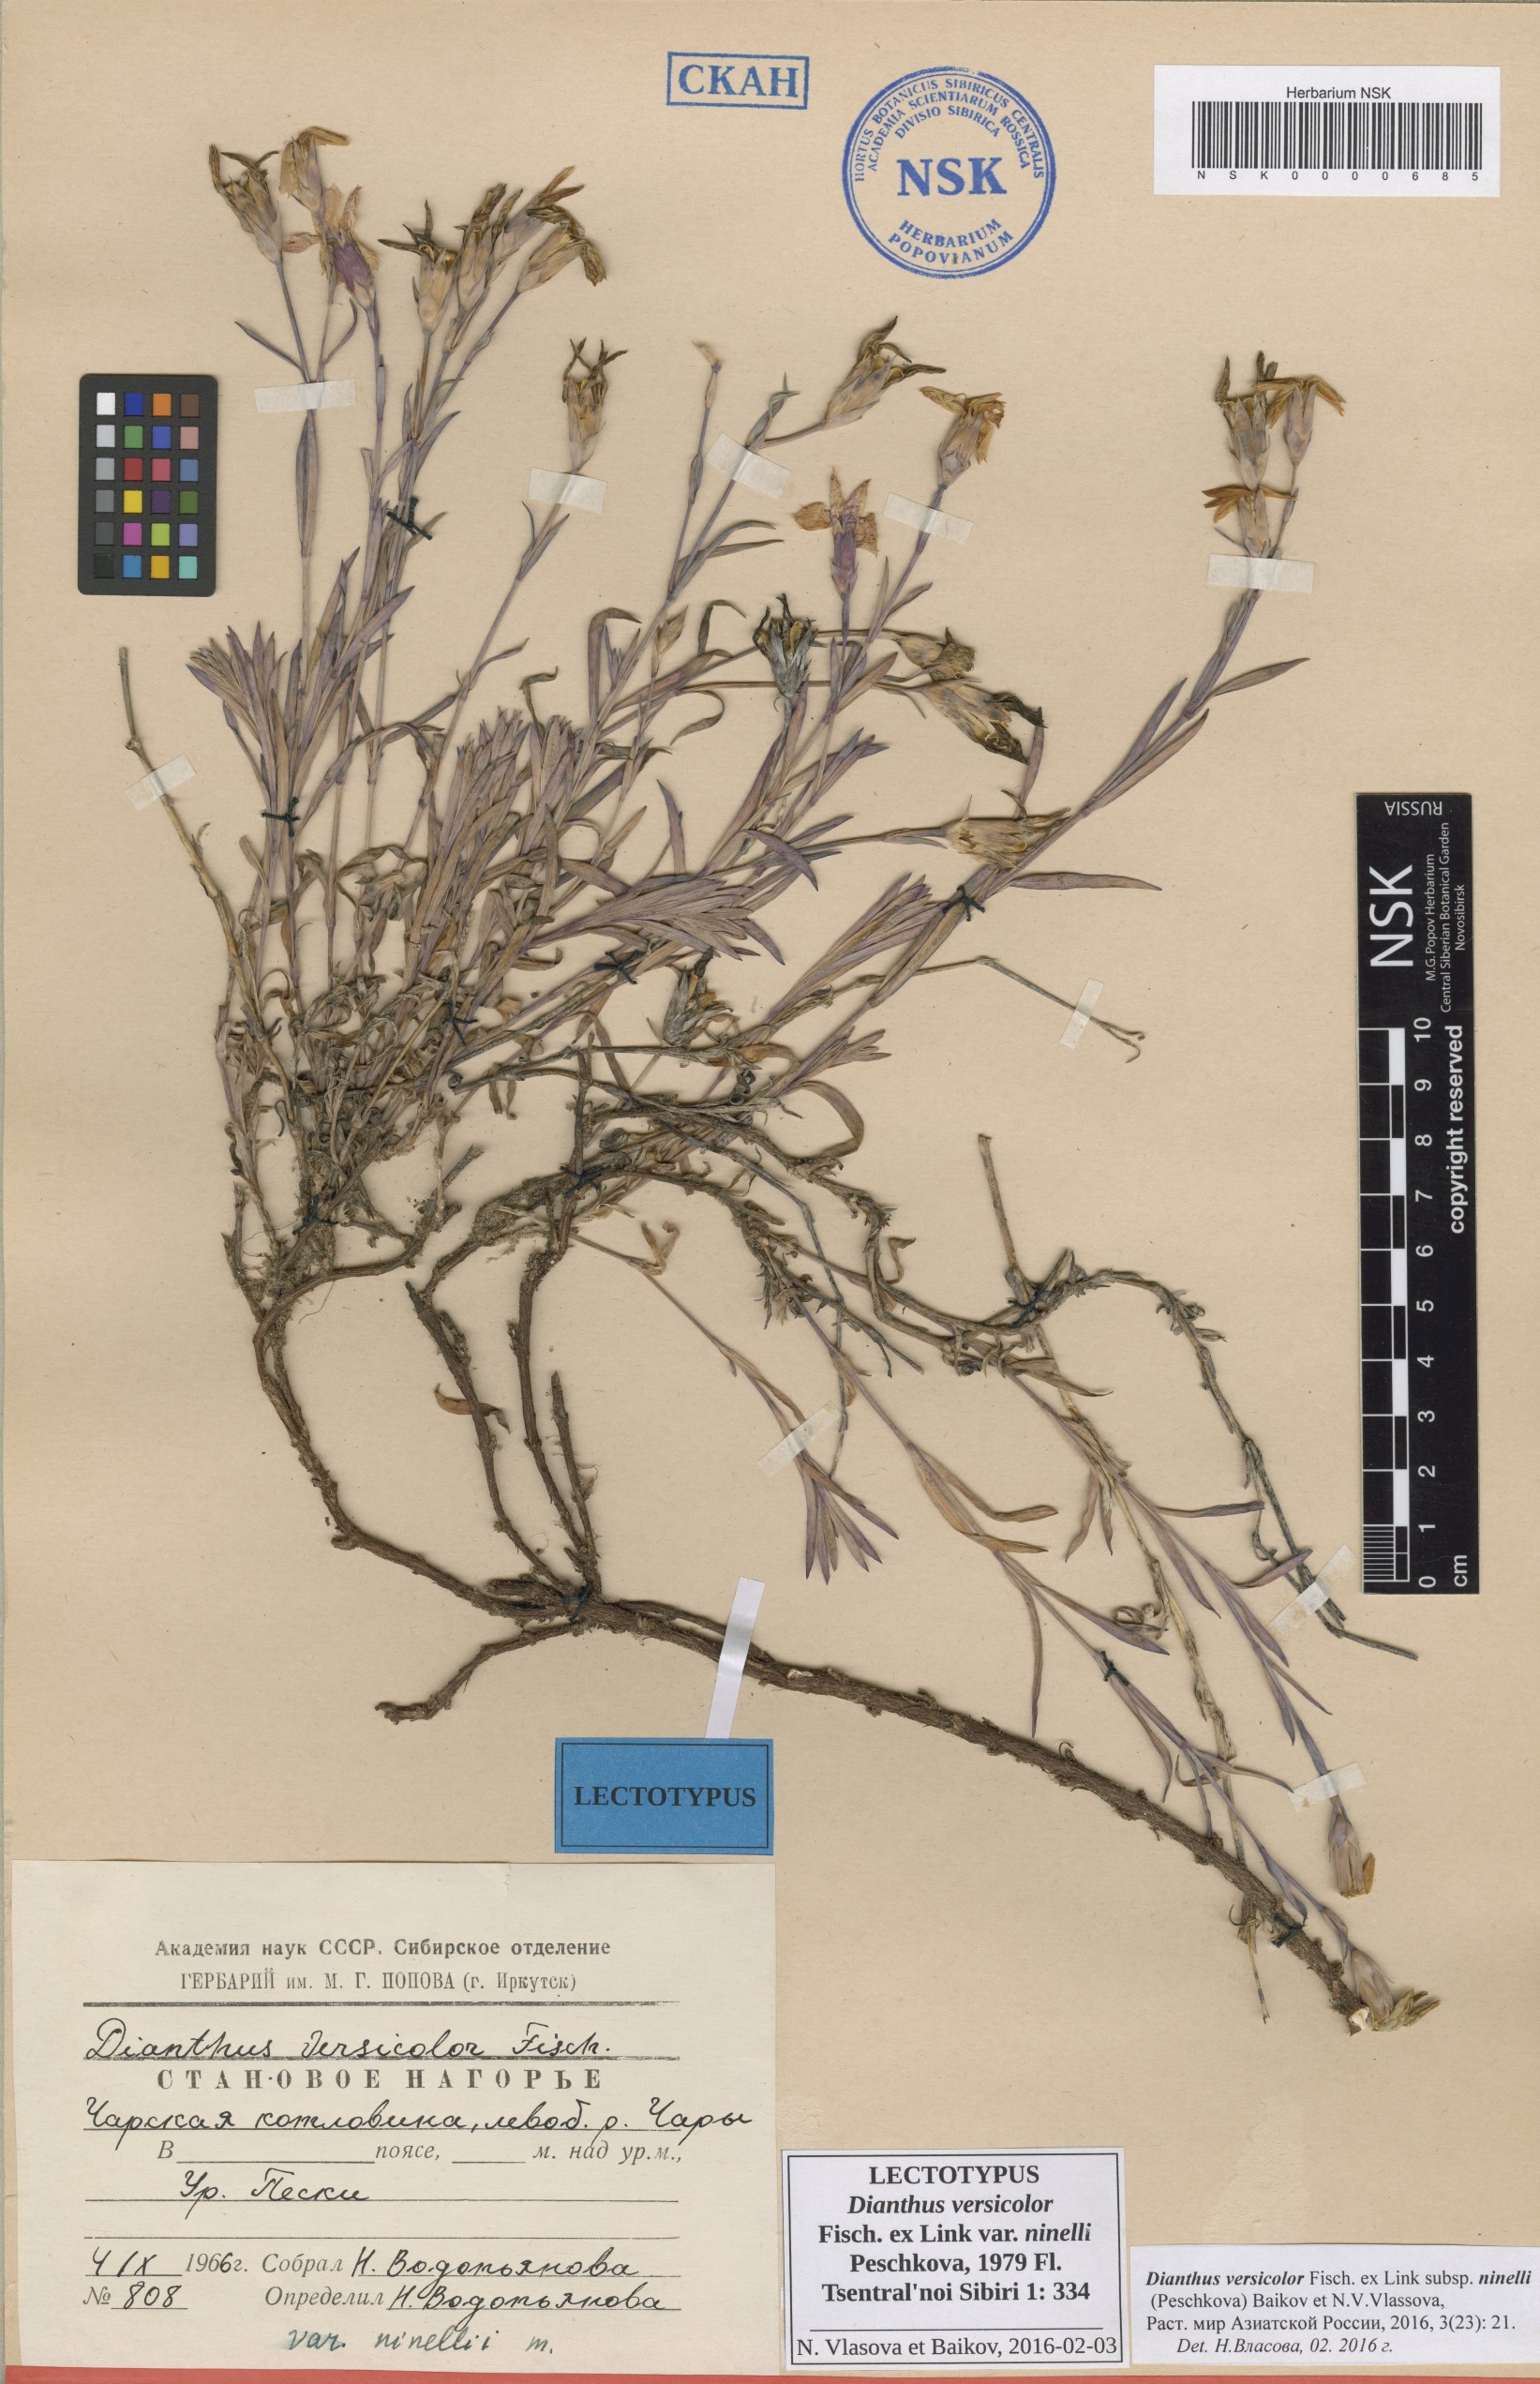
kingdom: Plantae
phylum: Tracheophyta
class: Magnoliopsida
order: Caryophyllales
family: Caryophyllaceae
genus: Dianthus
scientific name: Dianthus chinensis
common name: Rainbow pink
